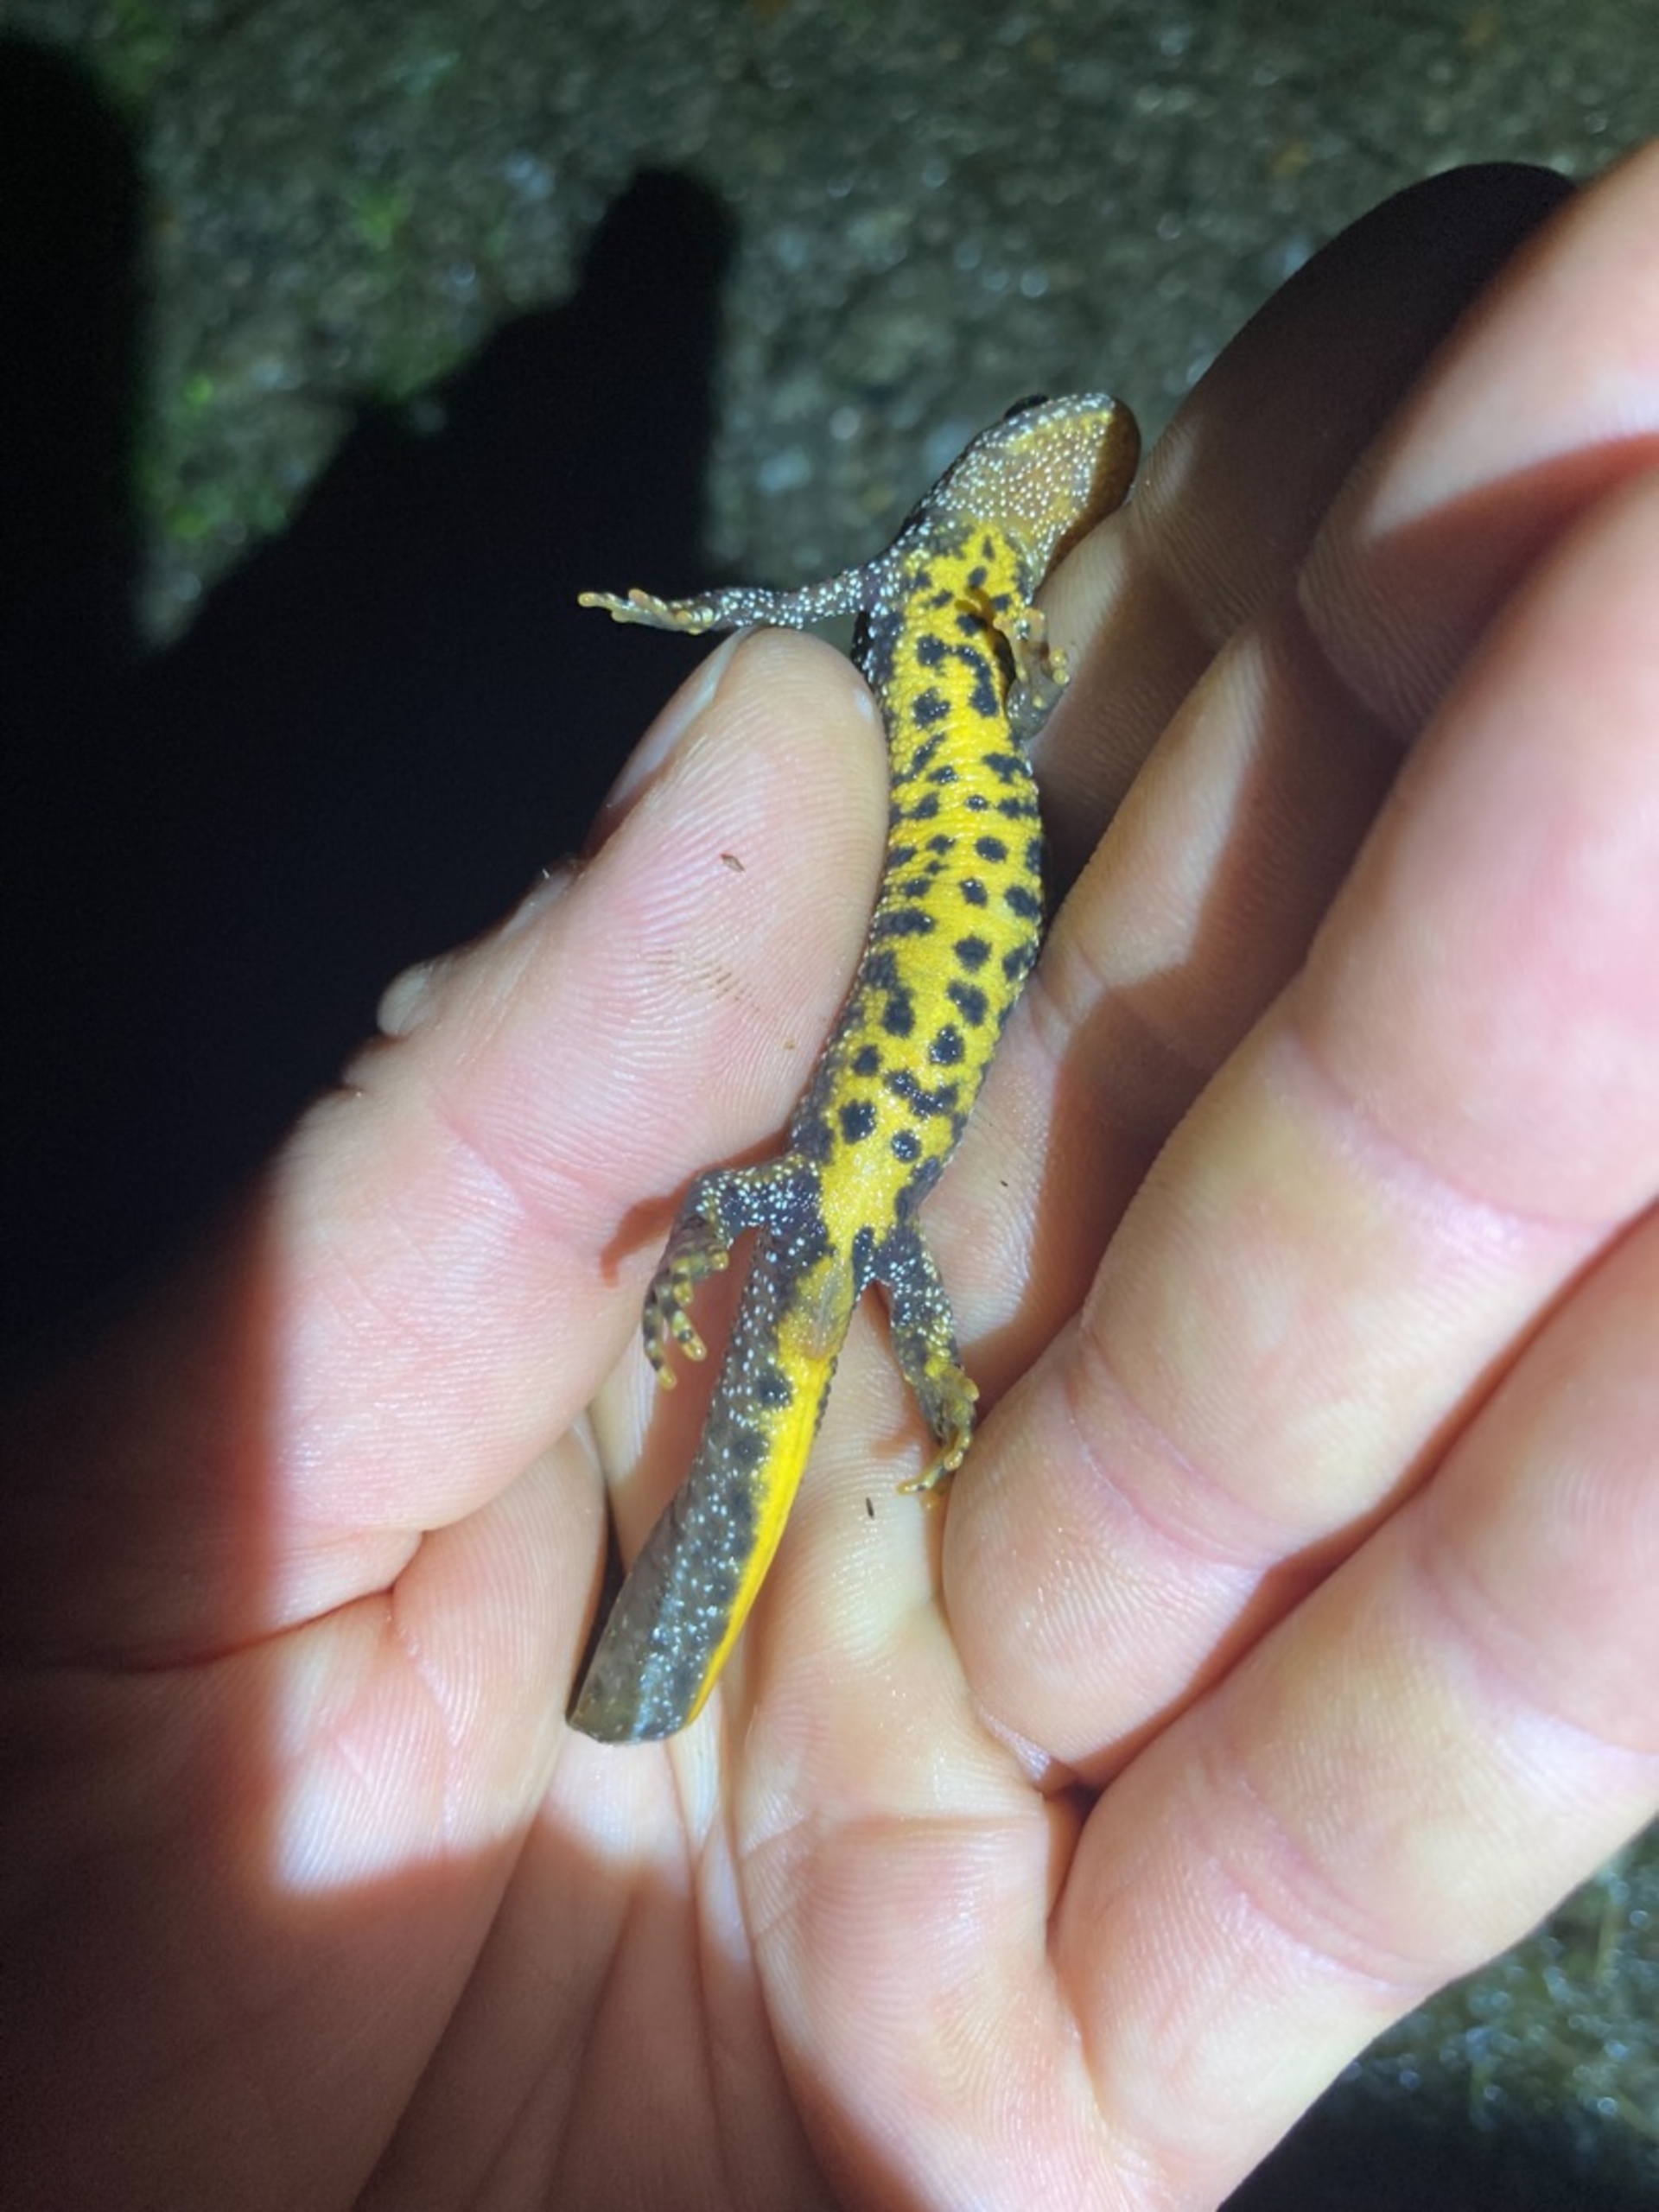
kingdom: Animalia
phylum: Chordata
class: Amphibia
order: Caudata
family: Salamandridae
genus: Triturus
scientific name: Triturus cristatus
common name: Stor vandsalamander
